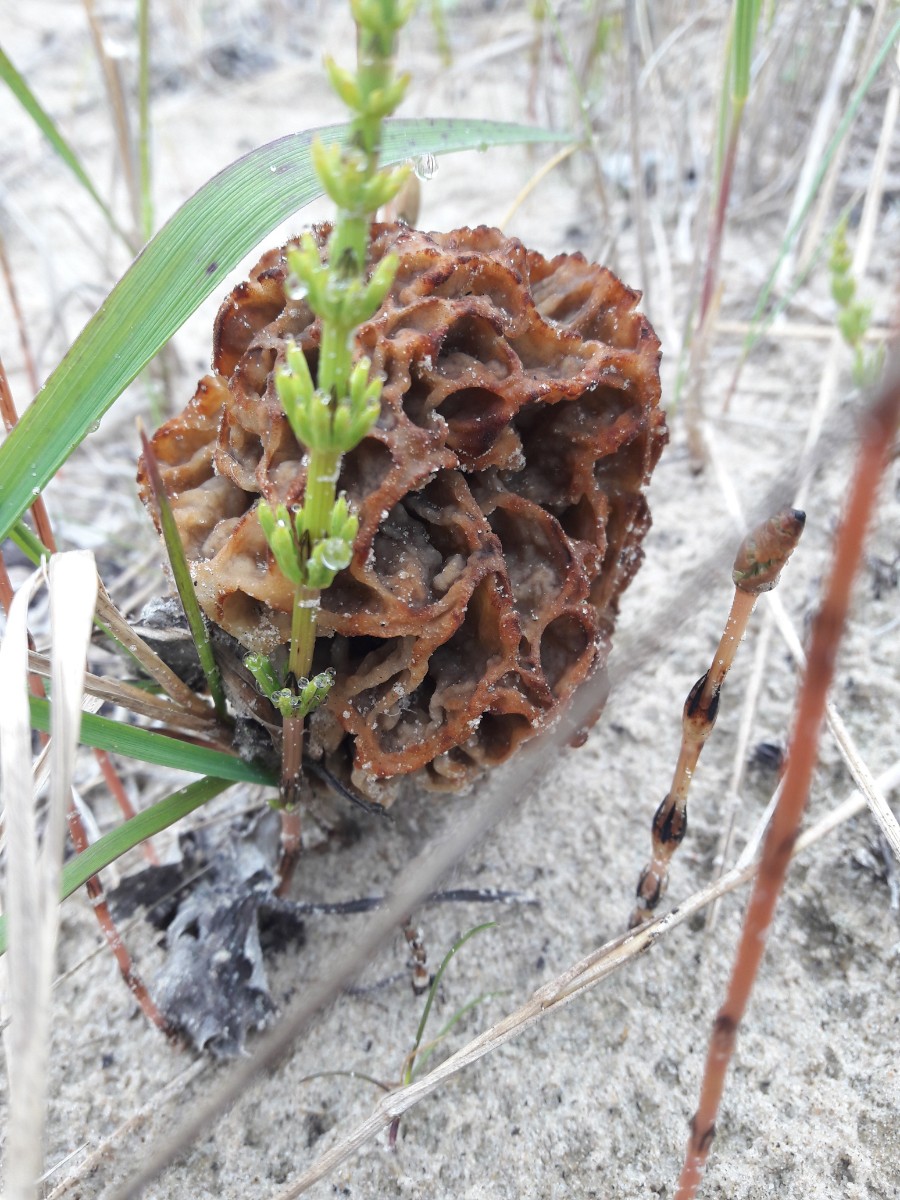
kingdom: Fungi
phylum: Ascomycota
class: Pezizomycetes
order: Pezizales
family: Morchellaceae
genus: Morchella
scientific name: Morchella esculenta
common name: almindelig morkel
